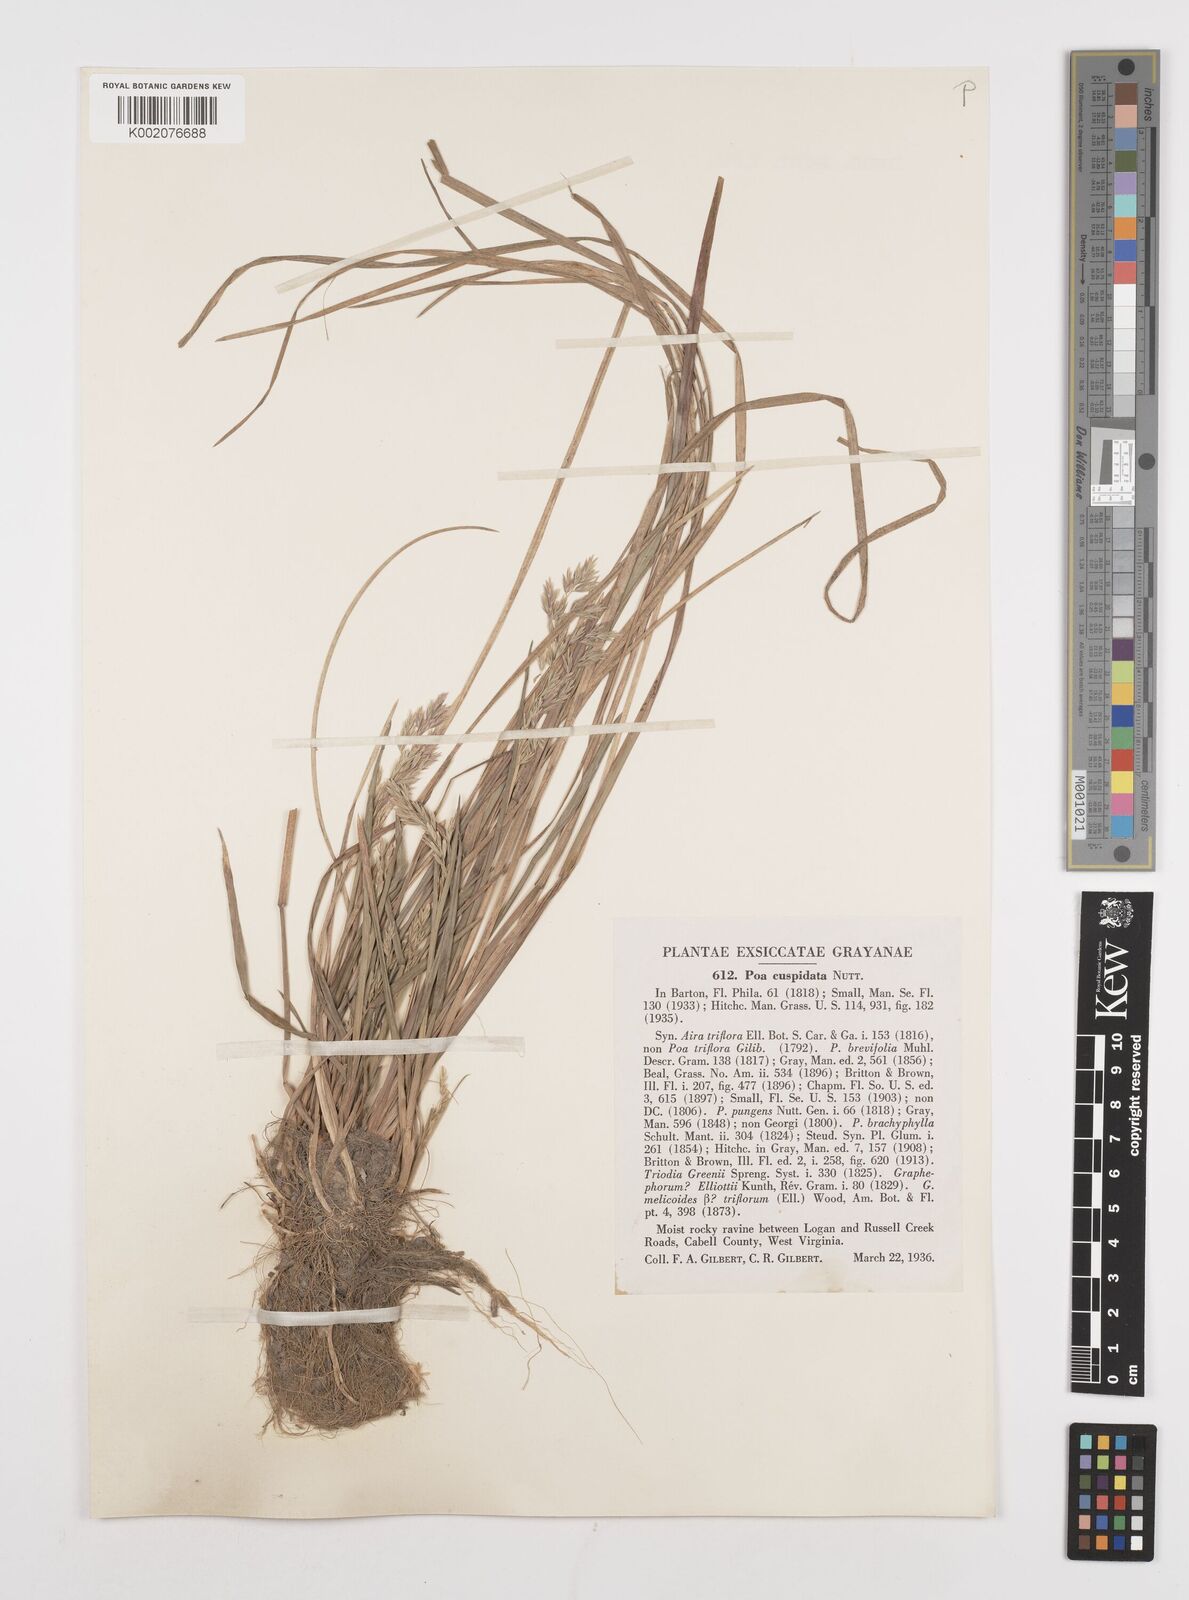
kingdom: Plantae
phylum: Tracheophyta
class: Liliopsida
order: Poales
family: Poaceae
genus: Poa
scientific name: Poa cuspidata
